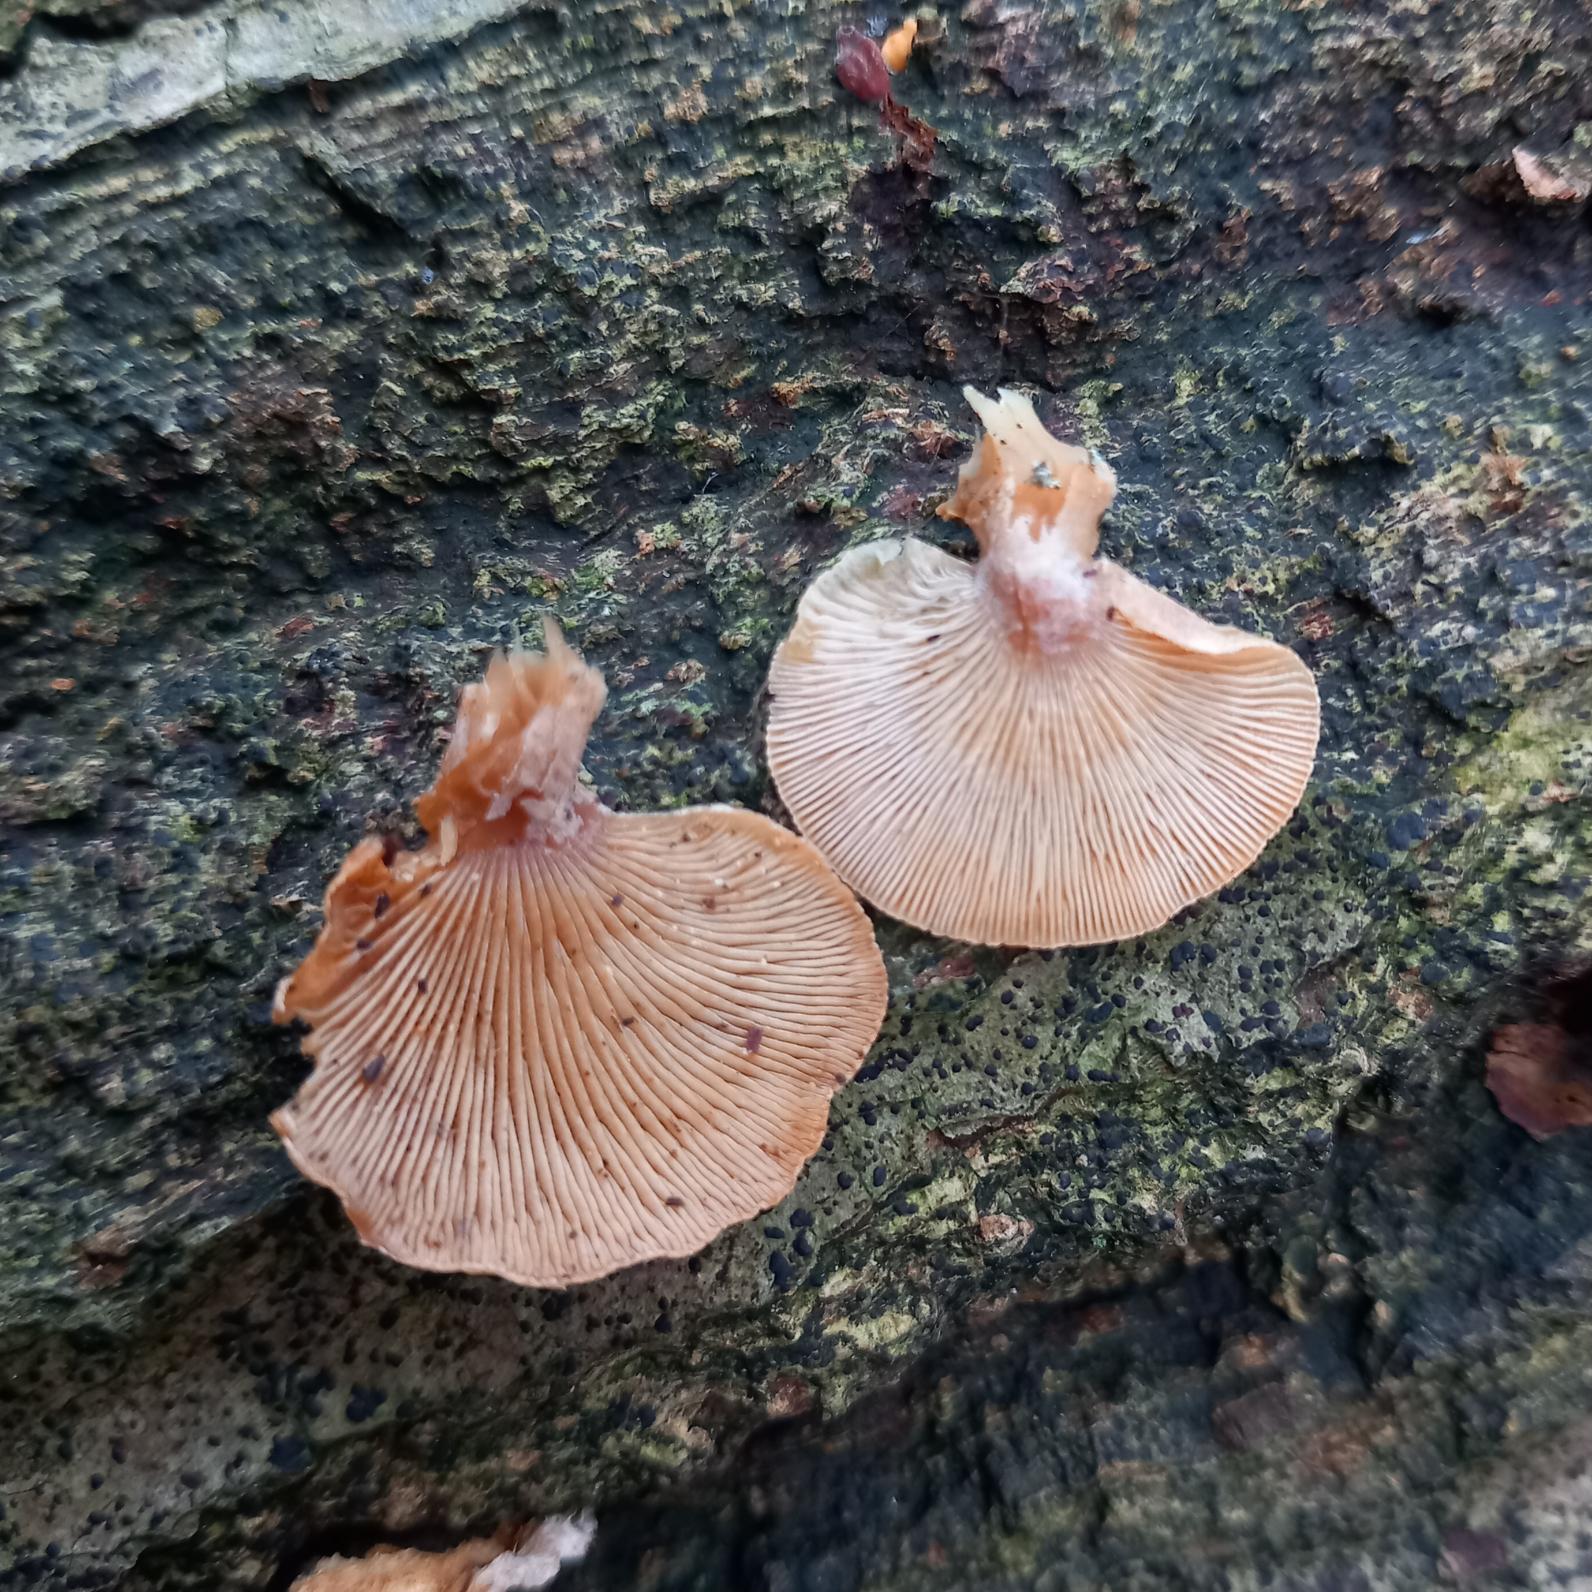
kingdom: Fungi
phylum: Basidiomycota
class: Agaricomycetes
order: Agaricales
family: Mycenaceae
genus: Panellus
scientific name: Panellus stipticus
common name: Kliddet epaulethat
